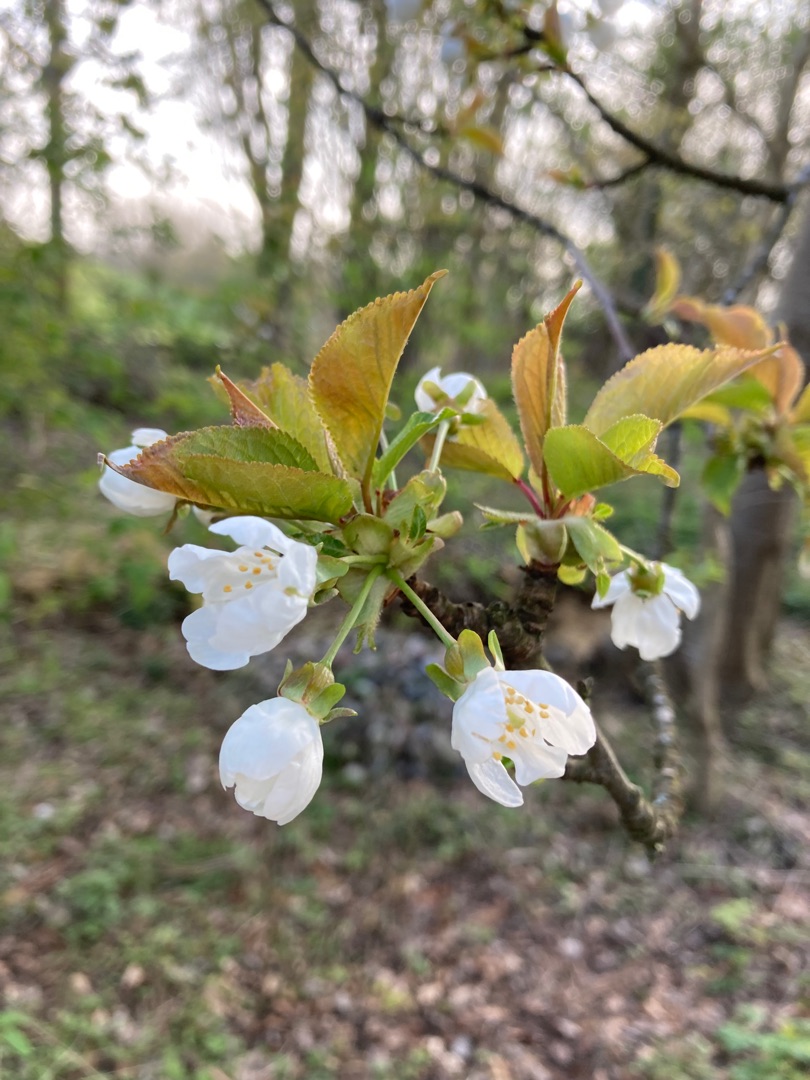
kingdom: Plantae
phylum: Tracheophyta
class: Magnoliopsida
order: Rosales
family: Rosaceae
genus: Prunus
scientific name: Prunus avium
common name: Fugle-kirsebær
